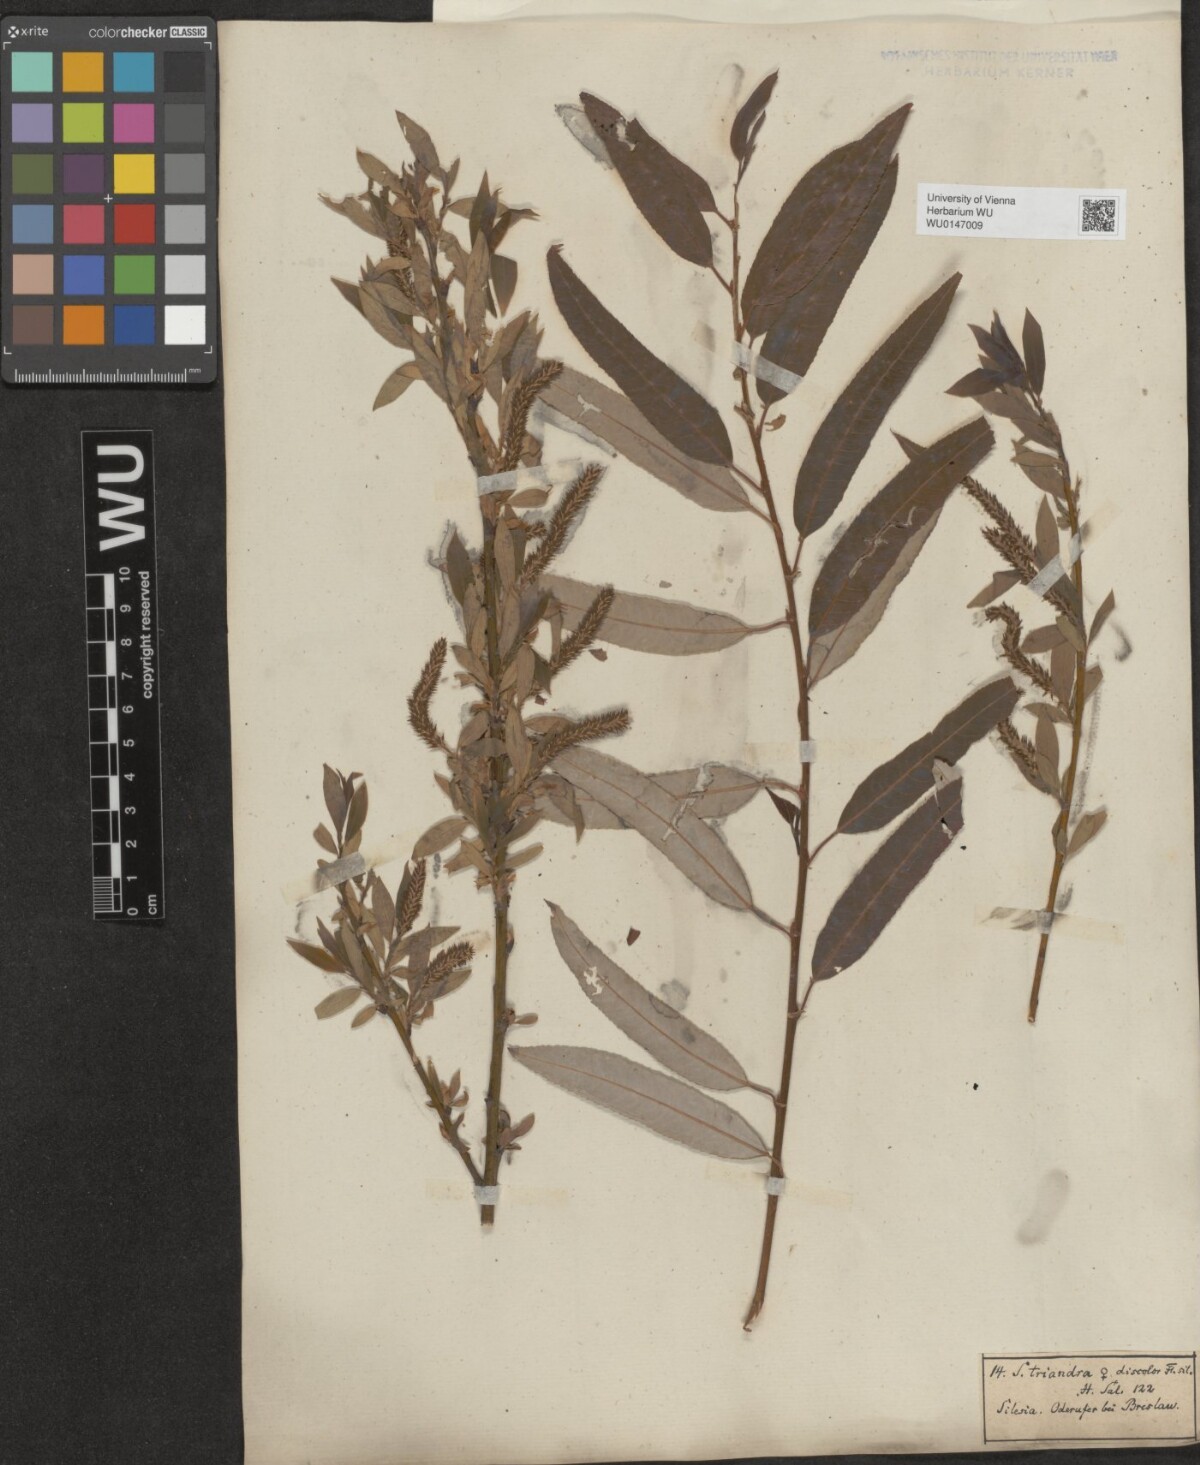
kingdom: Plantae
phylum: Tracheophyta
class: Magnoliopsida
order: Malpighiales
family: Salicaceae
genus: Salix
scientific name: Salix triandra
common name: Almond willow
